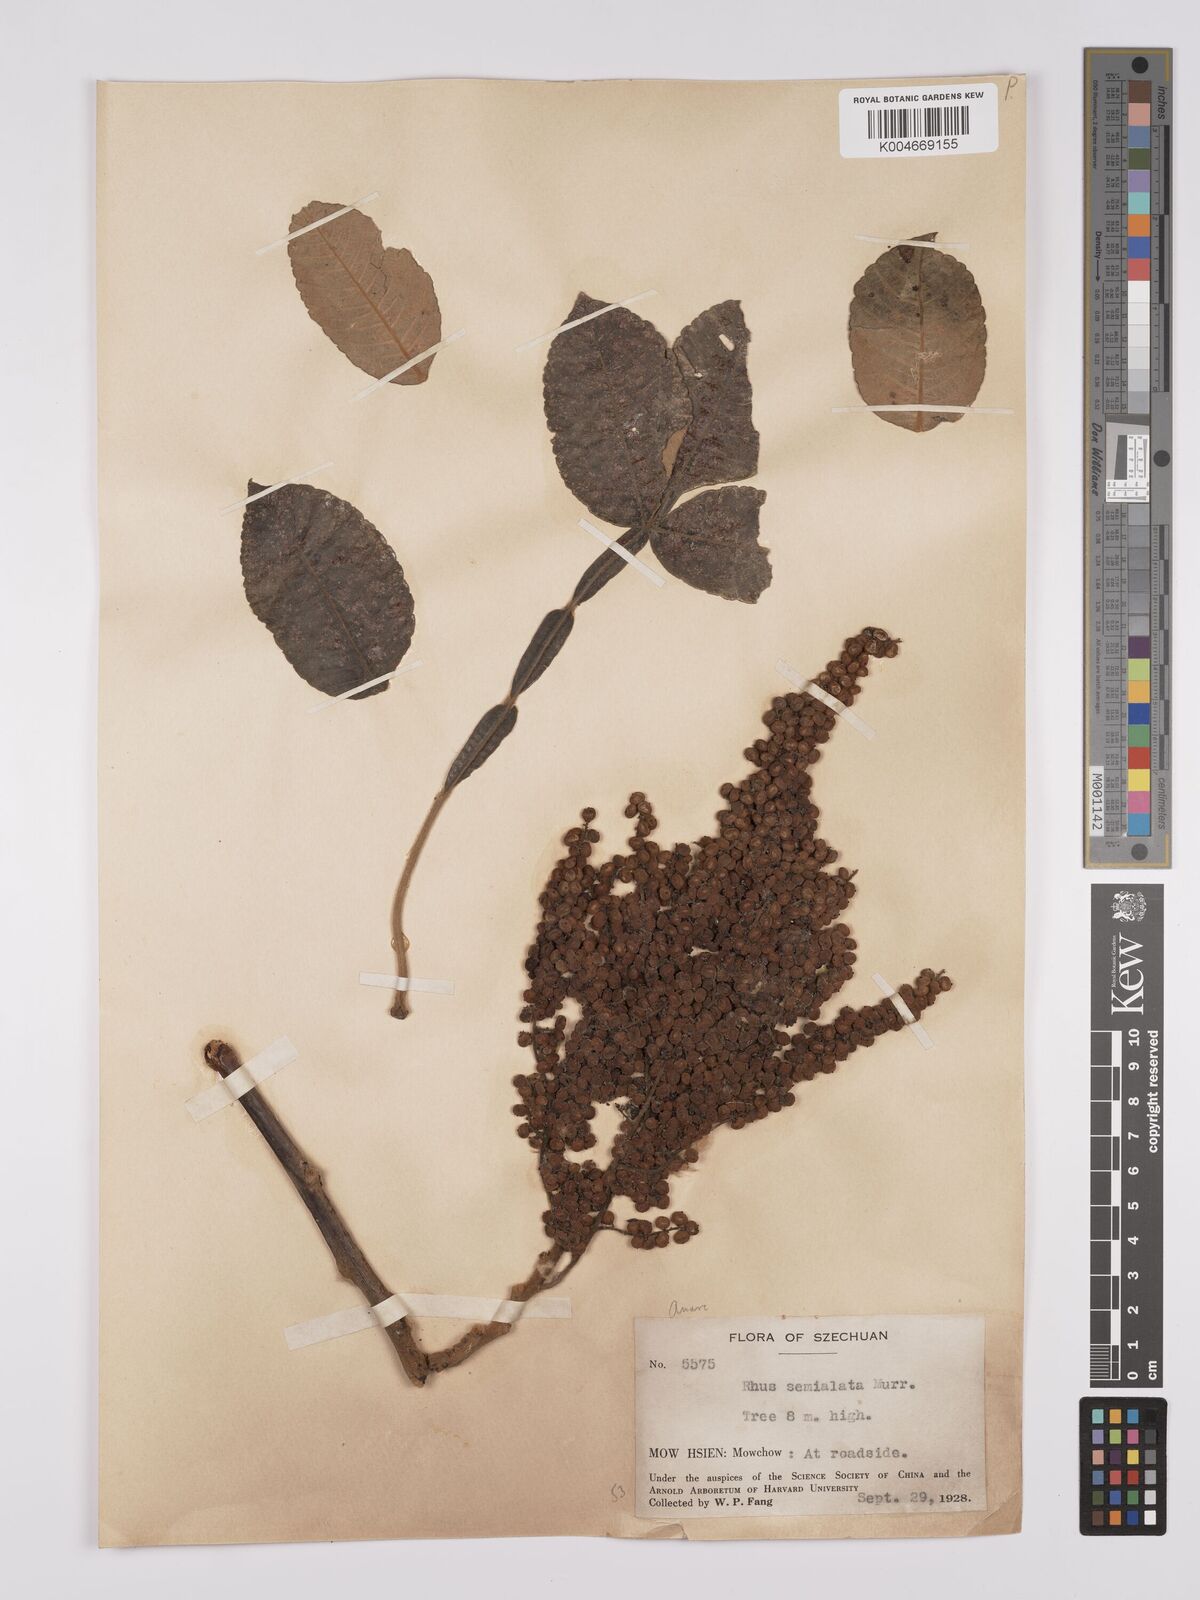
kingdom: Plantae
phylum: Tracheophyta
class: Magnoliopsida
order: Sapindales
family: Anacardiaceae
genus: Rhus
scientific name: Rhus chinensis
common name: Chinese gall
